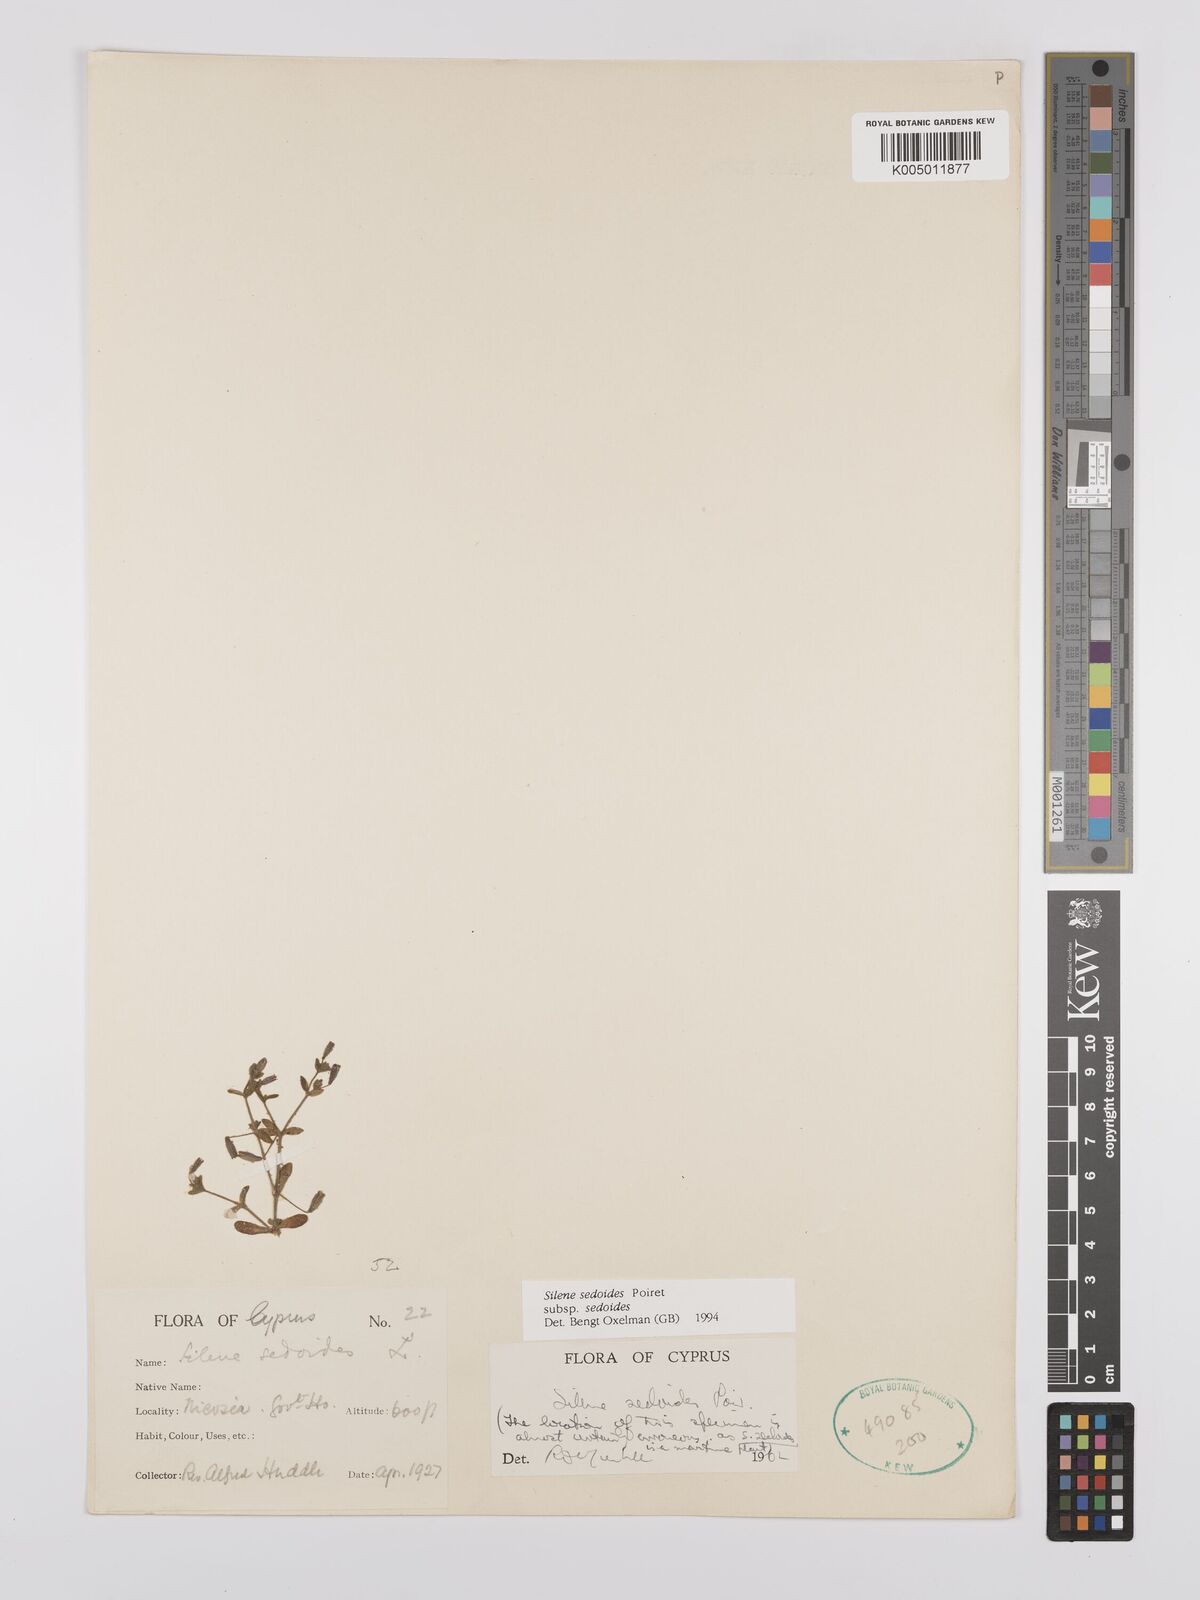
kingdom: Plantae
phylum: Tracheophyta
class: Magnoliopsida
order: Caryophyllales
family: Caryophyllaceae
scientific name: Caryophyllaceae
